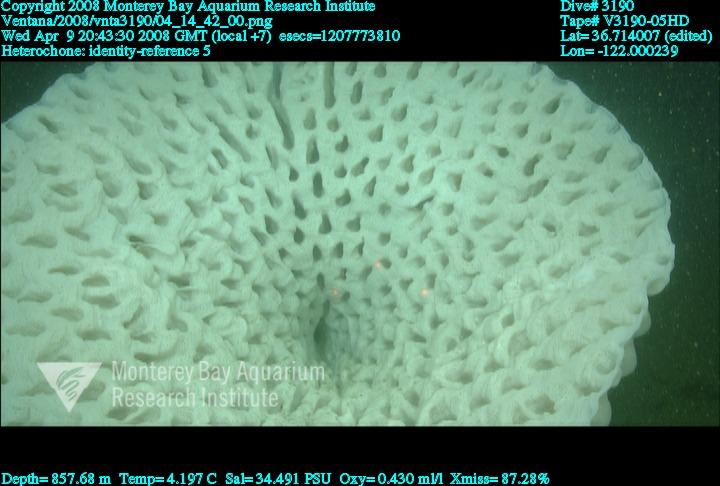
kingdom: Animalia
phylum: Porifera
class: Hexactinellida
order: Sceptrulophora
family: Aphrocallistidae
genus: Heterochone
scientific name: Heterochone
